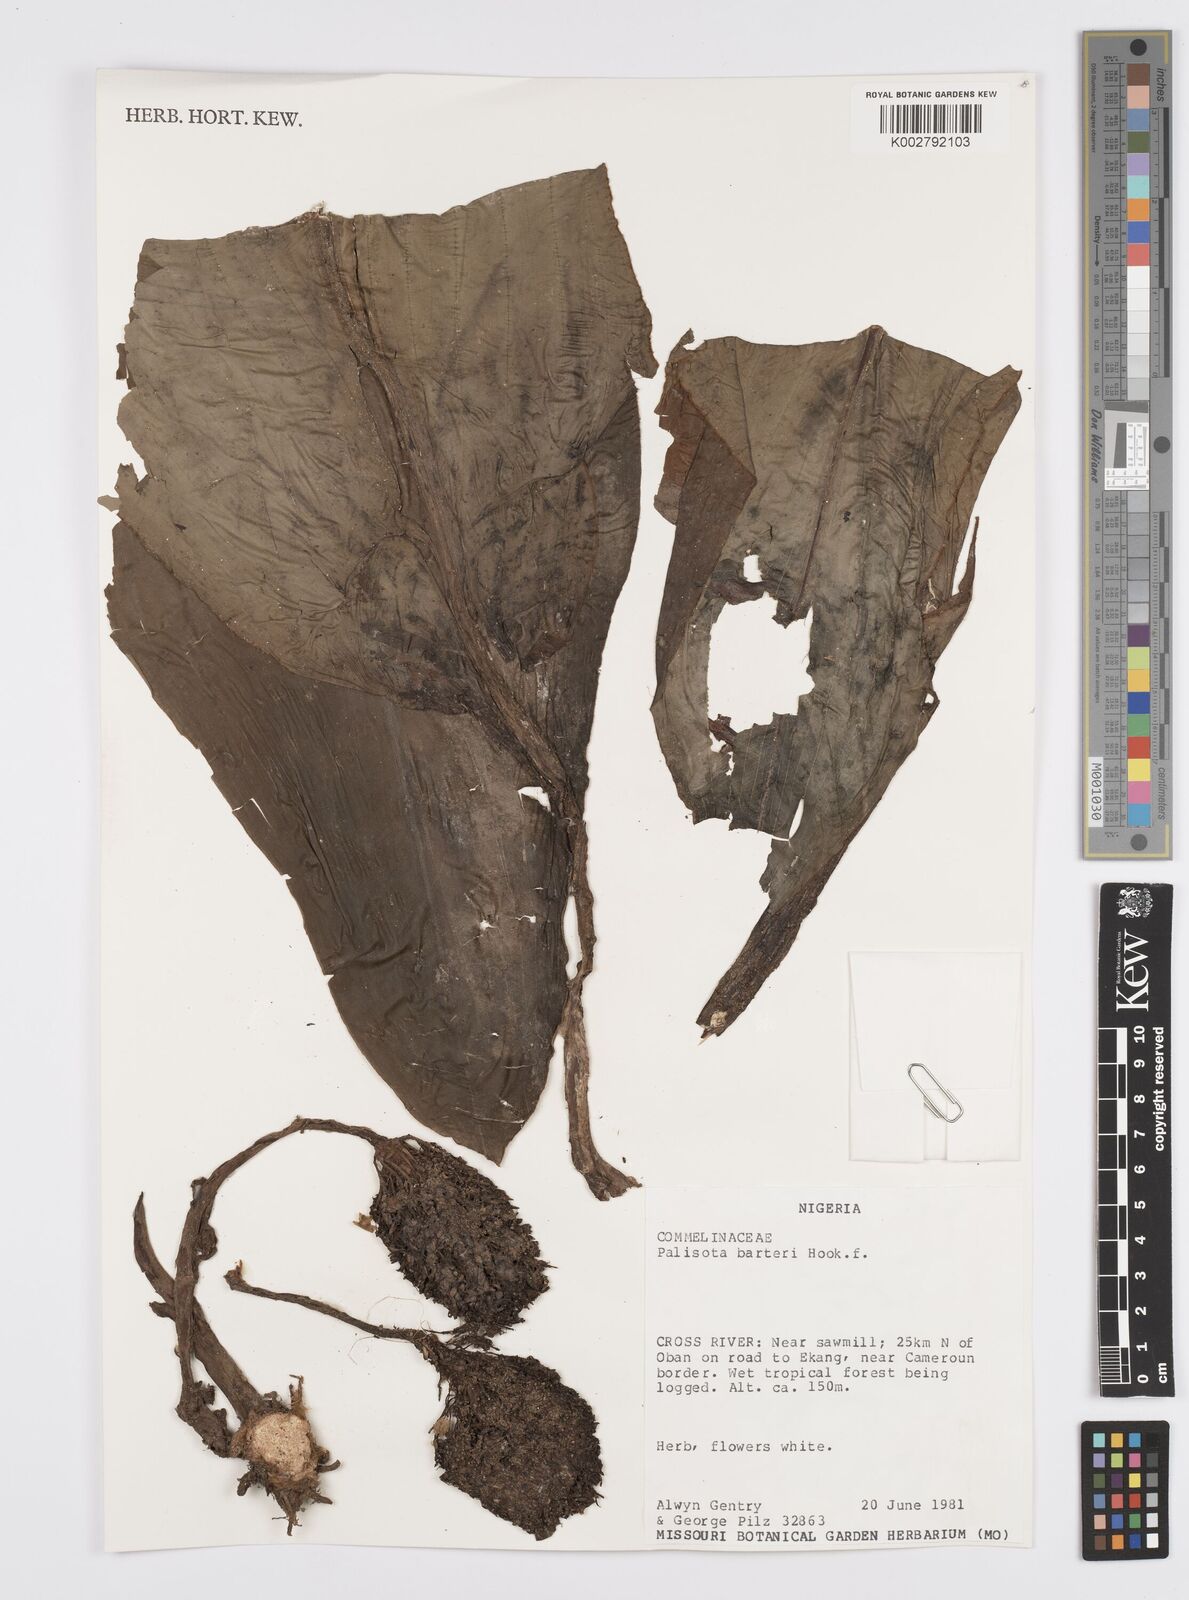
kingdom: Plantae
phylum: Tracheophyta
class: Liliopsida
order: Commelinales
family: Commelinaceae
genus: Palisota
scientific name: Palisota barteri
